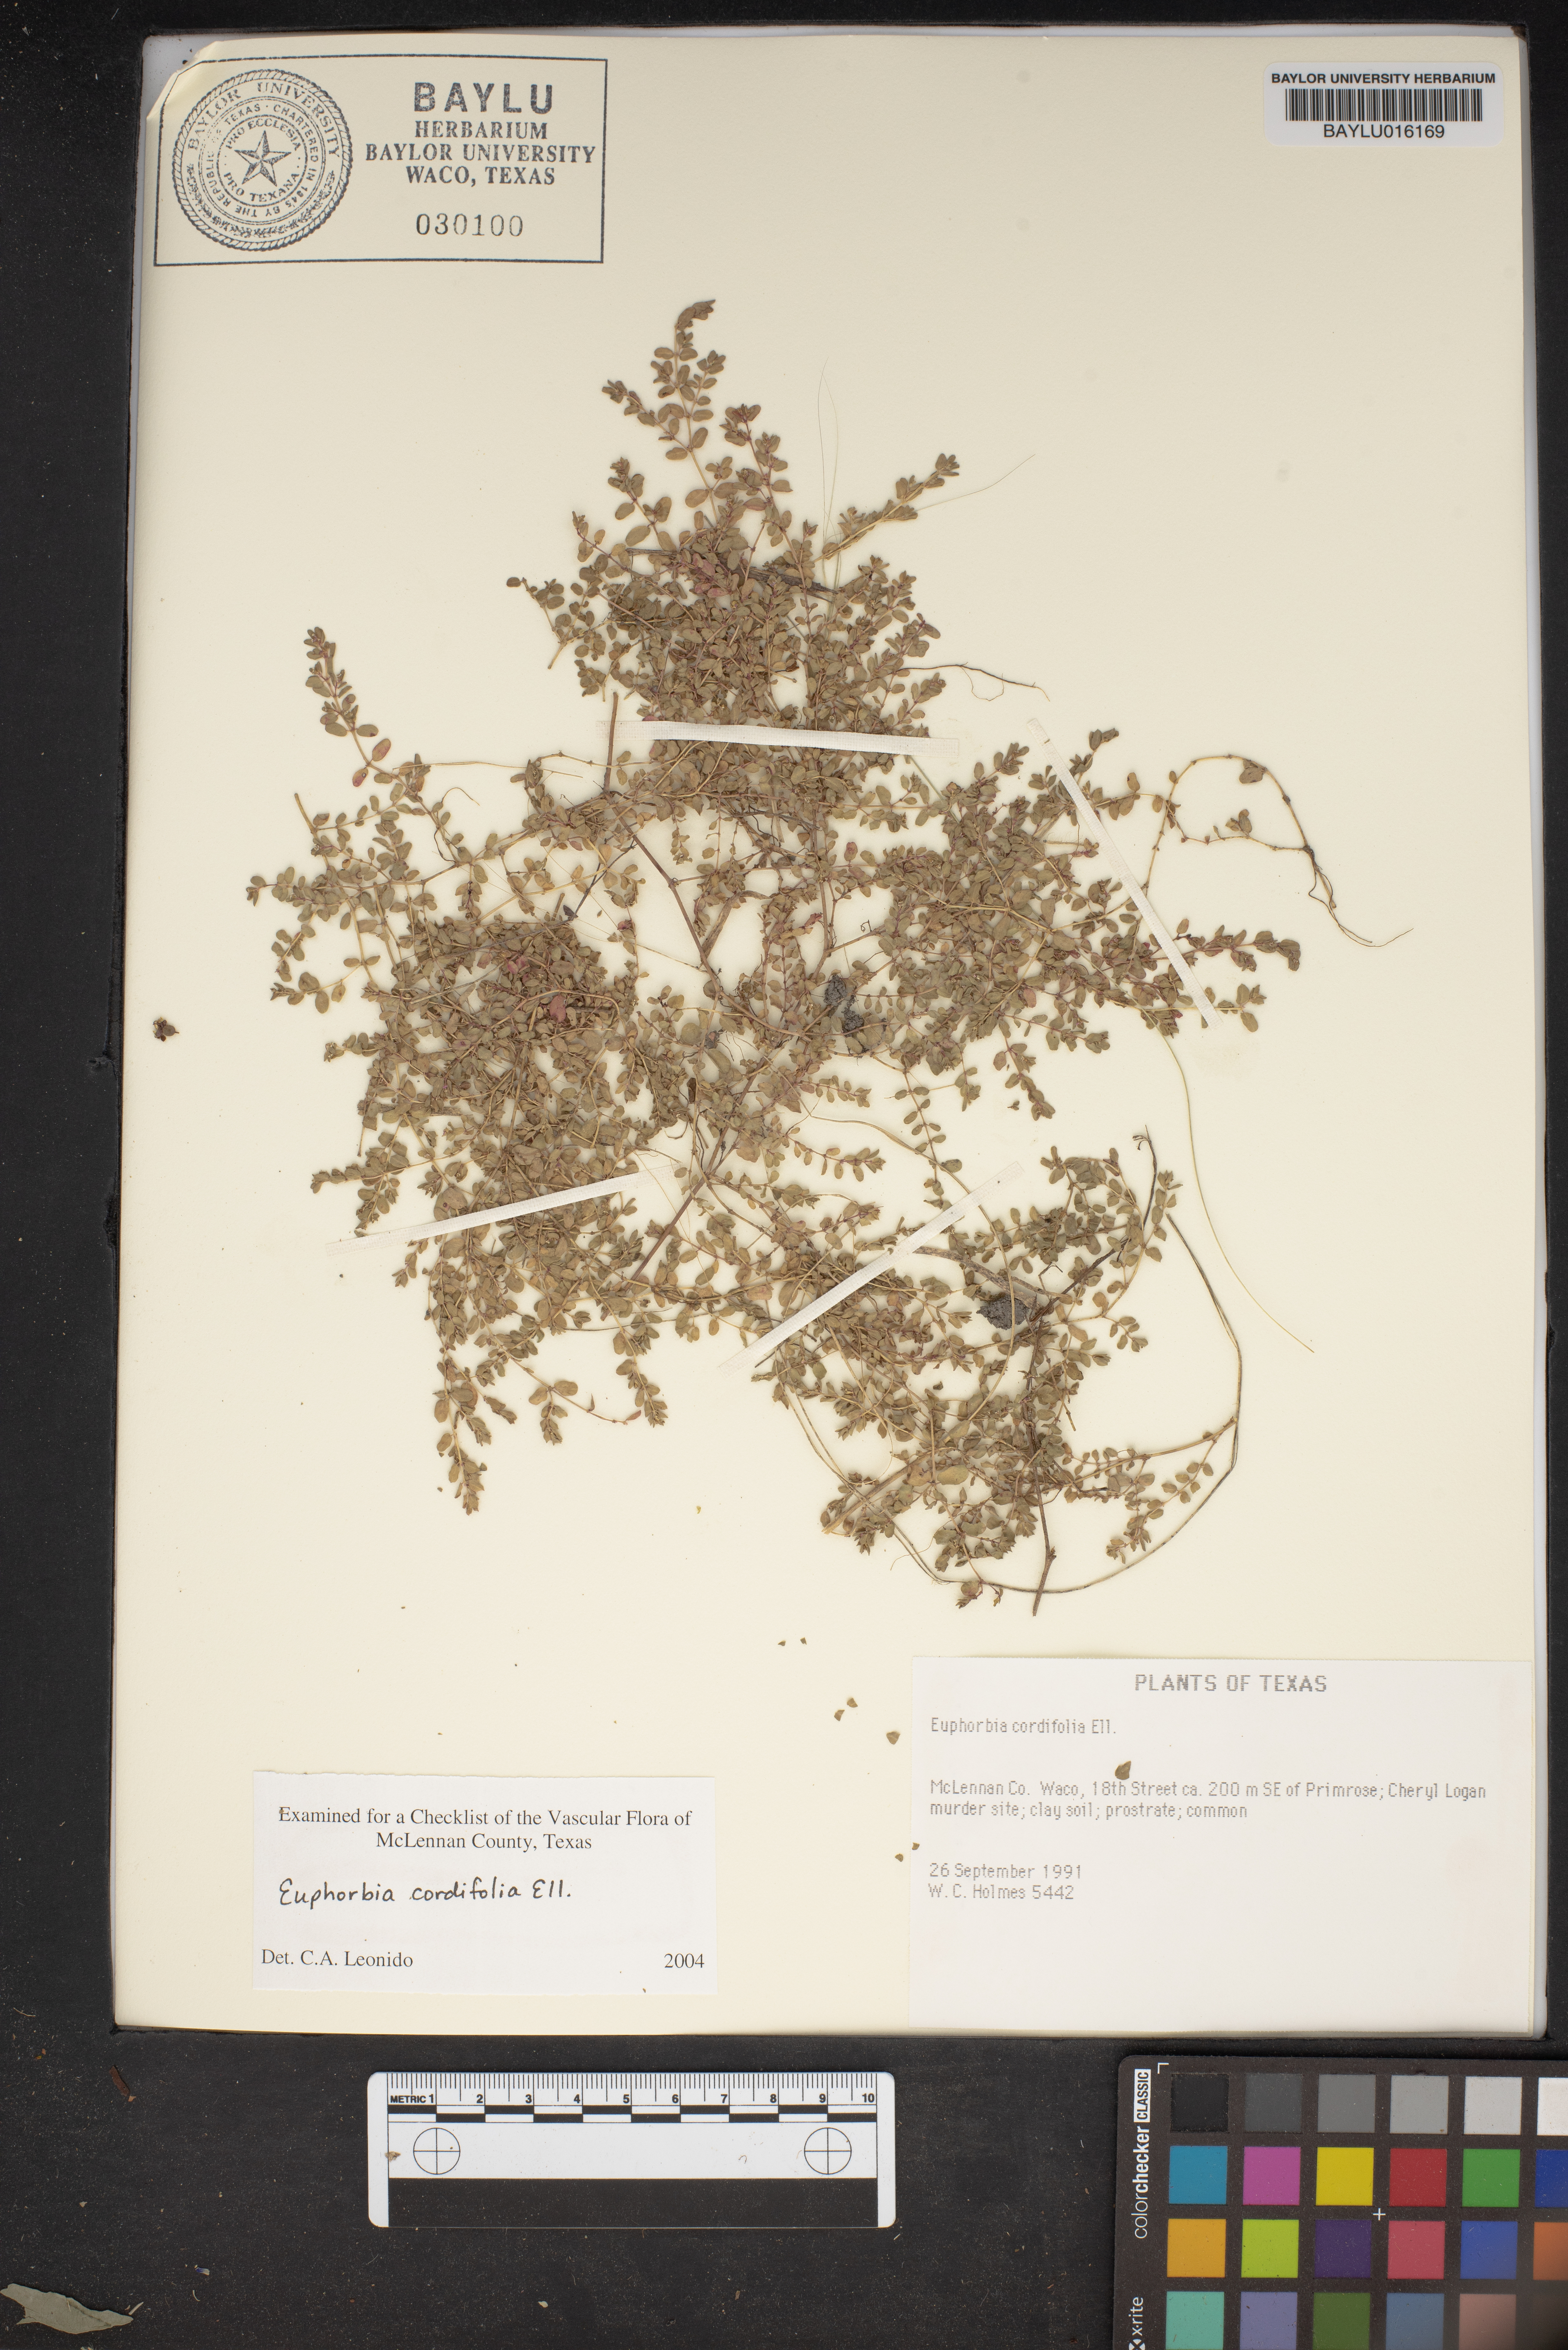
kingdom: Plantae
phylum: Tracheophyta
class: Magnoliopsida
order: Malpighiales
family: Euphorbiaceae
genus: Euphorbia
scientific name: Euphorbia cordifolia
